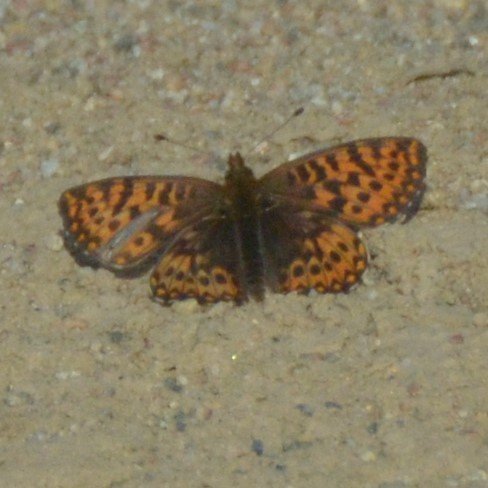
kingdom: Animalia
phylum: Arthropoda
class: Insecta
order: Lepidoptera
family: Nymphalidae
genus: Boloria
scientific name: Boloria freija
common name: Freija Fritillary
